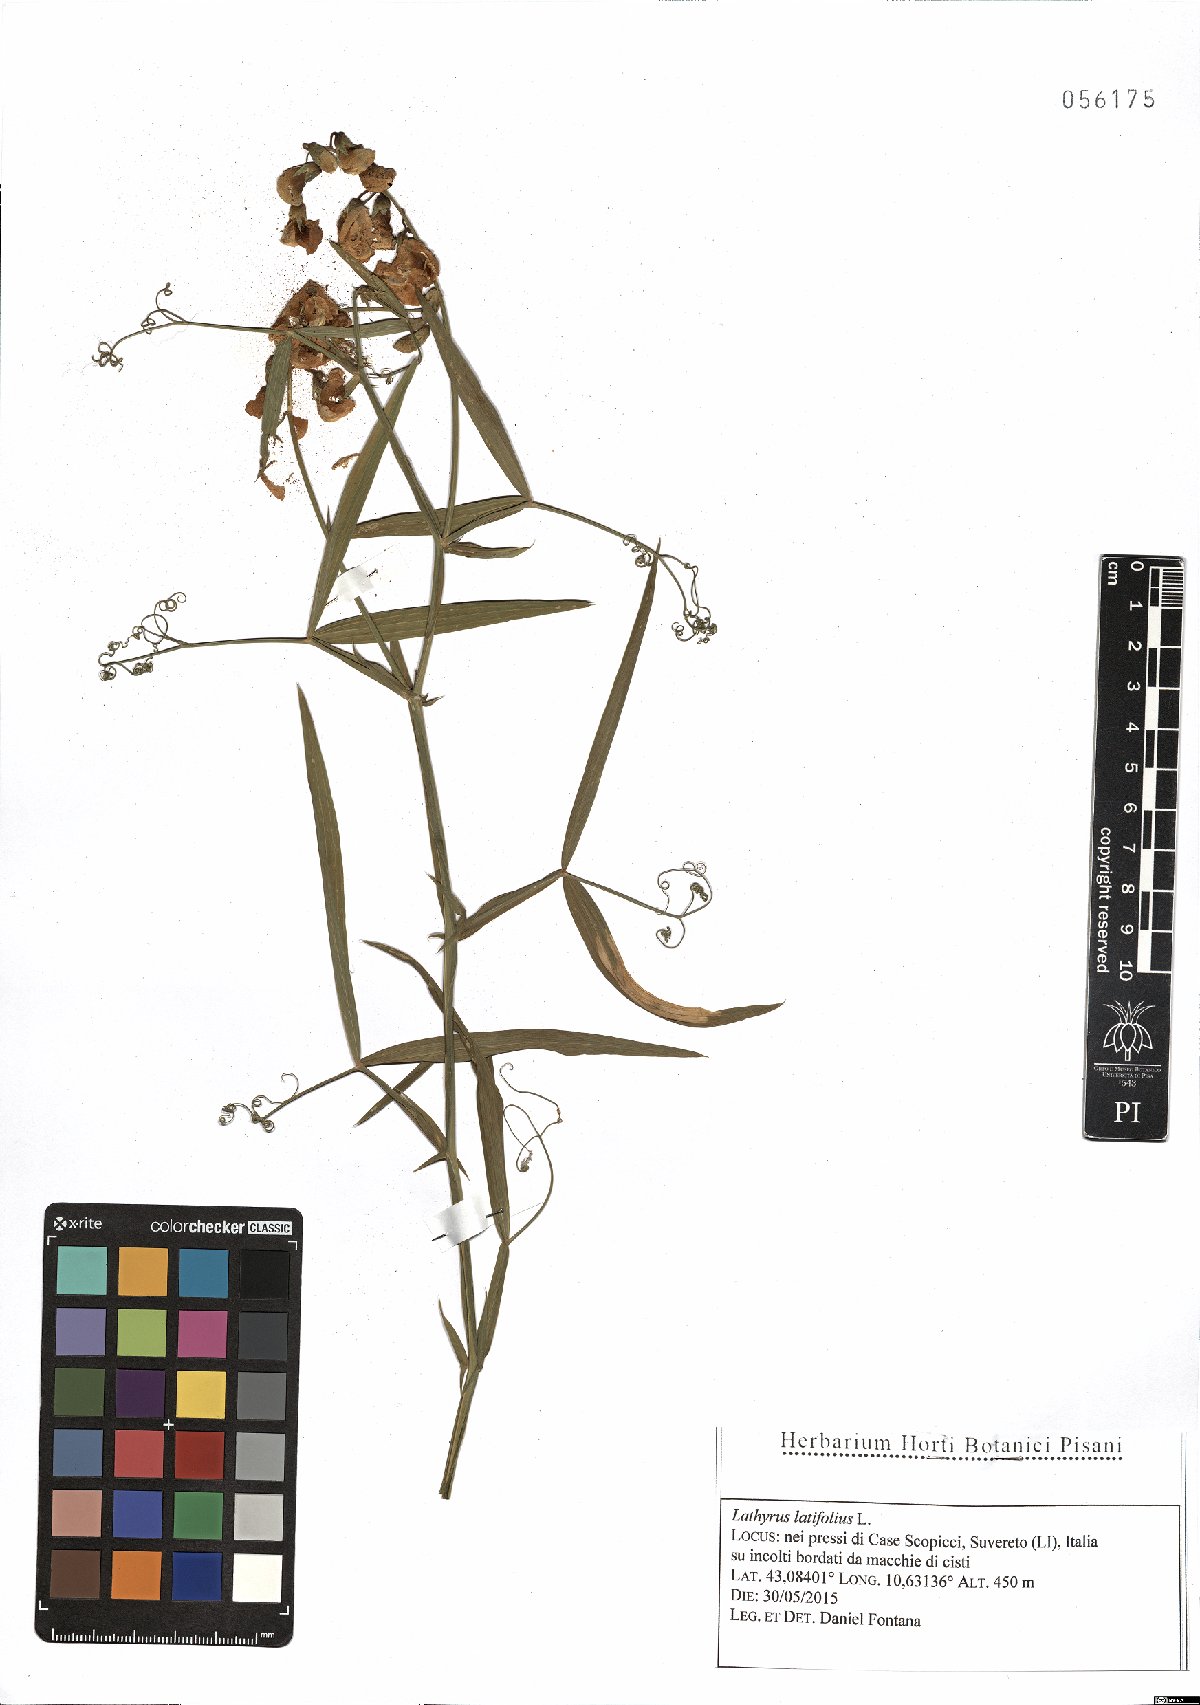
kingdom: Plantae
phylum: Tracheophyta
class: Magnoliopsida
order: Fabales
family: Fabaceae
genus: Lathyrus
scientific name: Lathyrus latifolius
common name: Perennial pea
